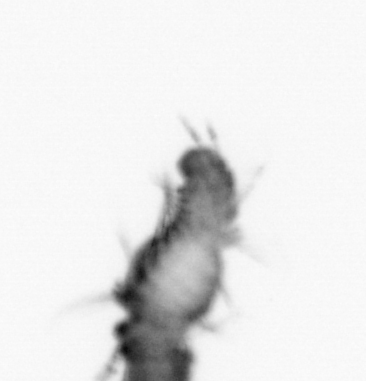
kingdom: Animalia
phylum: Annelida
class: Polychaeta
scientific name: Polychaeta
